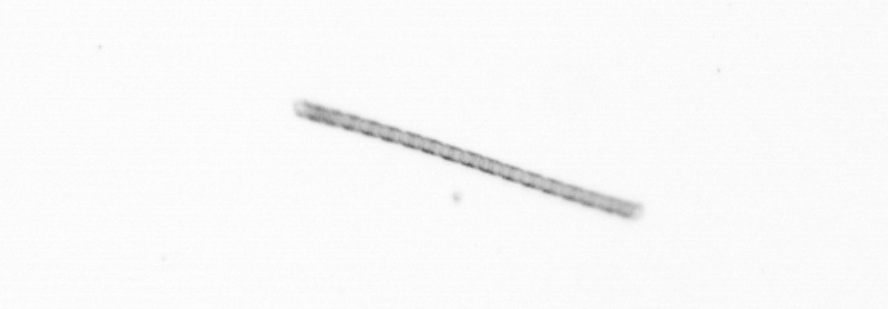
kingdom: Chromista
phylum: Ochrophyta
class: Bacillariophyceae
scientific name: Bacillariophyceae
